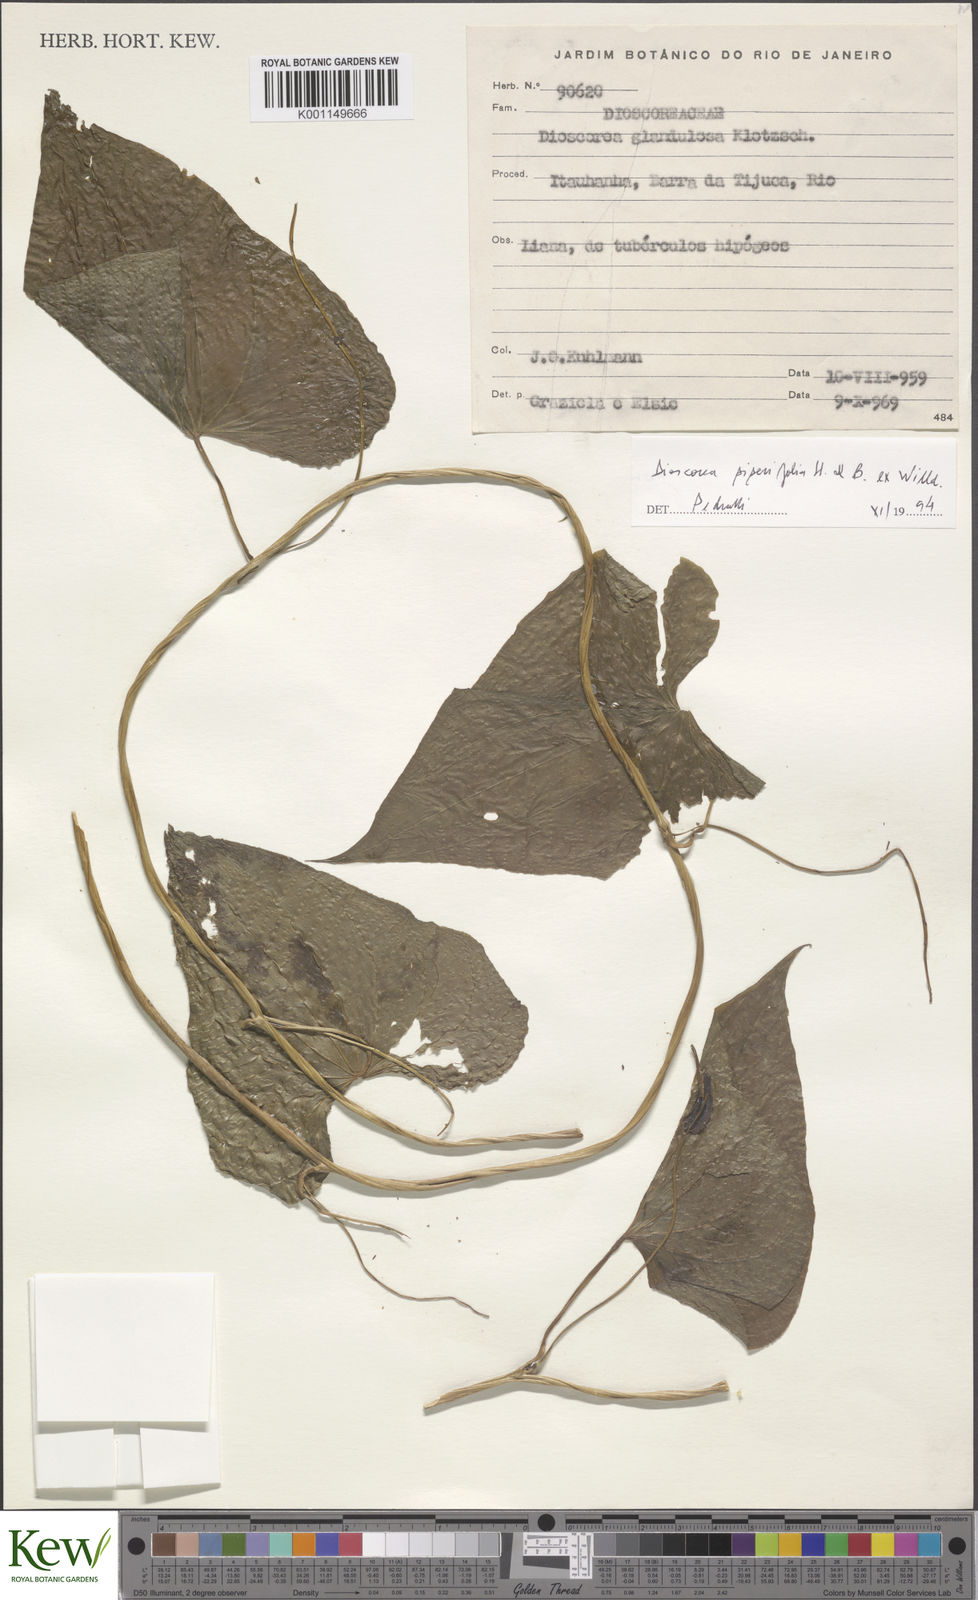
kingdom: Plantae
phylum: Tracheophyta
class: Liliopsida
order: Dioscoreales
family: Dioscoreaceae
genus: Dioscorea
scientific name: Dioscorea glandulosa
